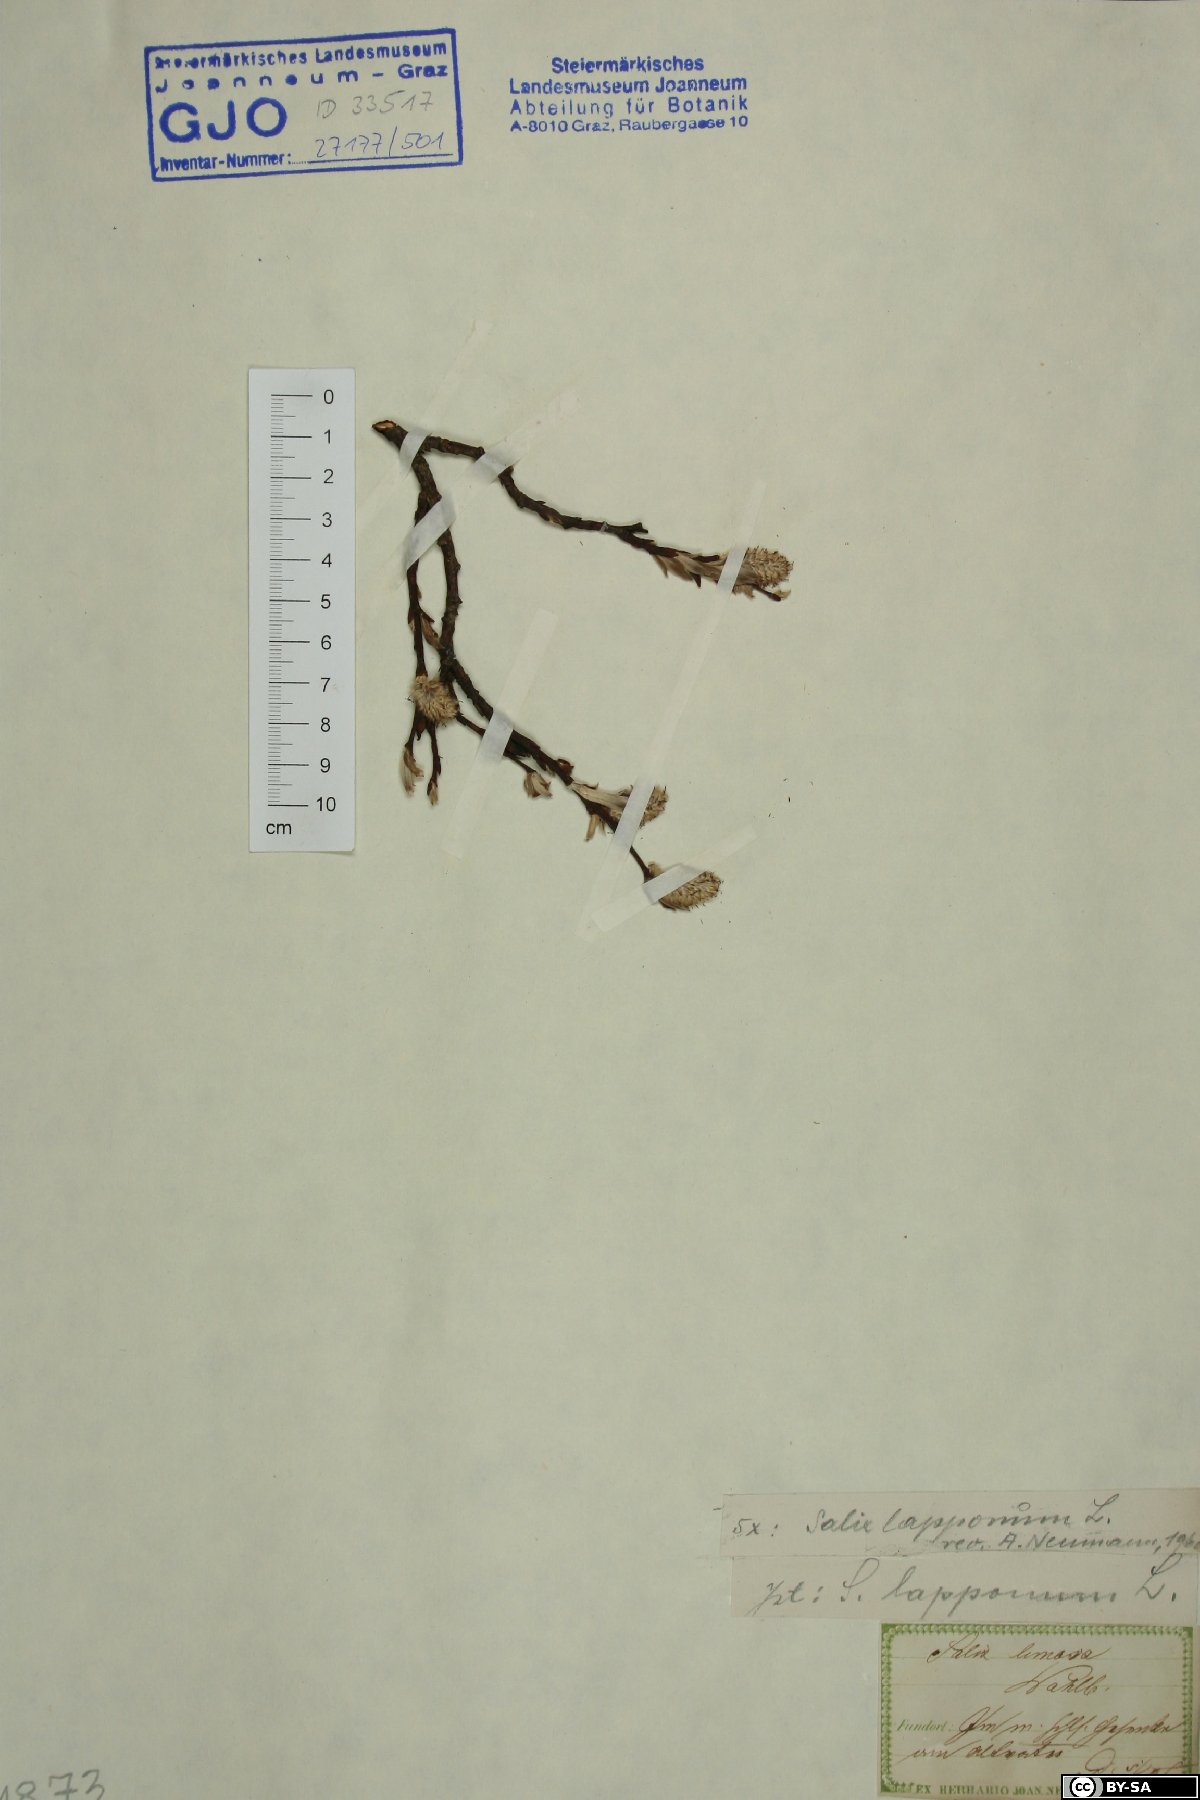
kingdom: Plantae
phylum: Tracheophyta
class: Magnoliopsida
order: Malpighiales
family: Salicaceae
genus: Salix
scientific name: Salix lapponum
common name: Downy willow
